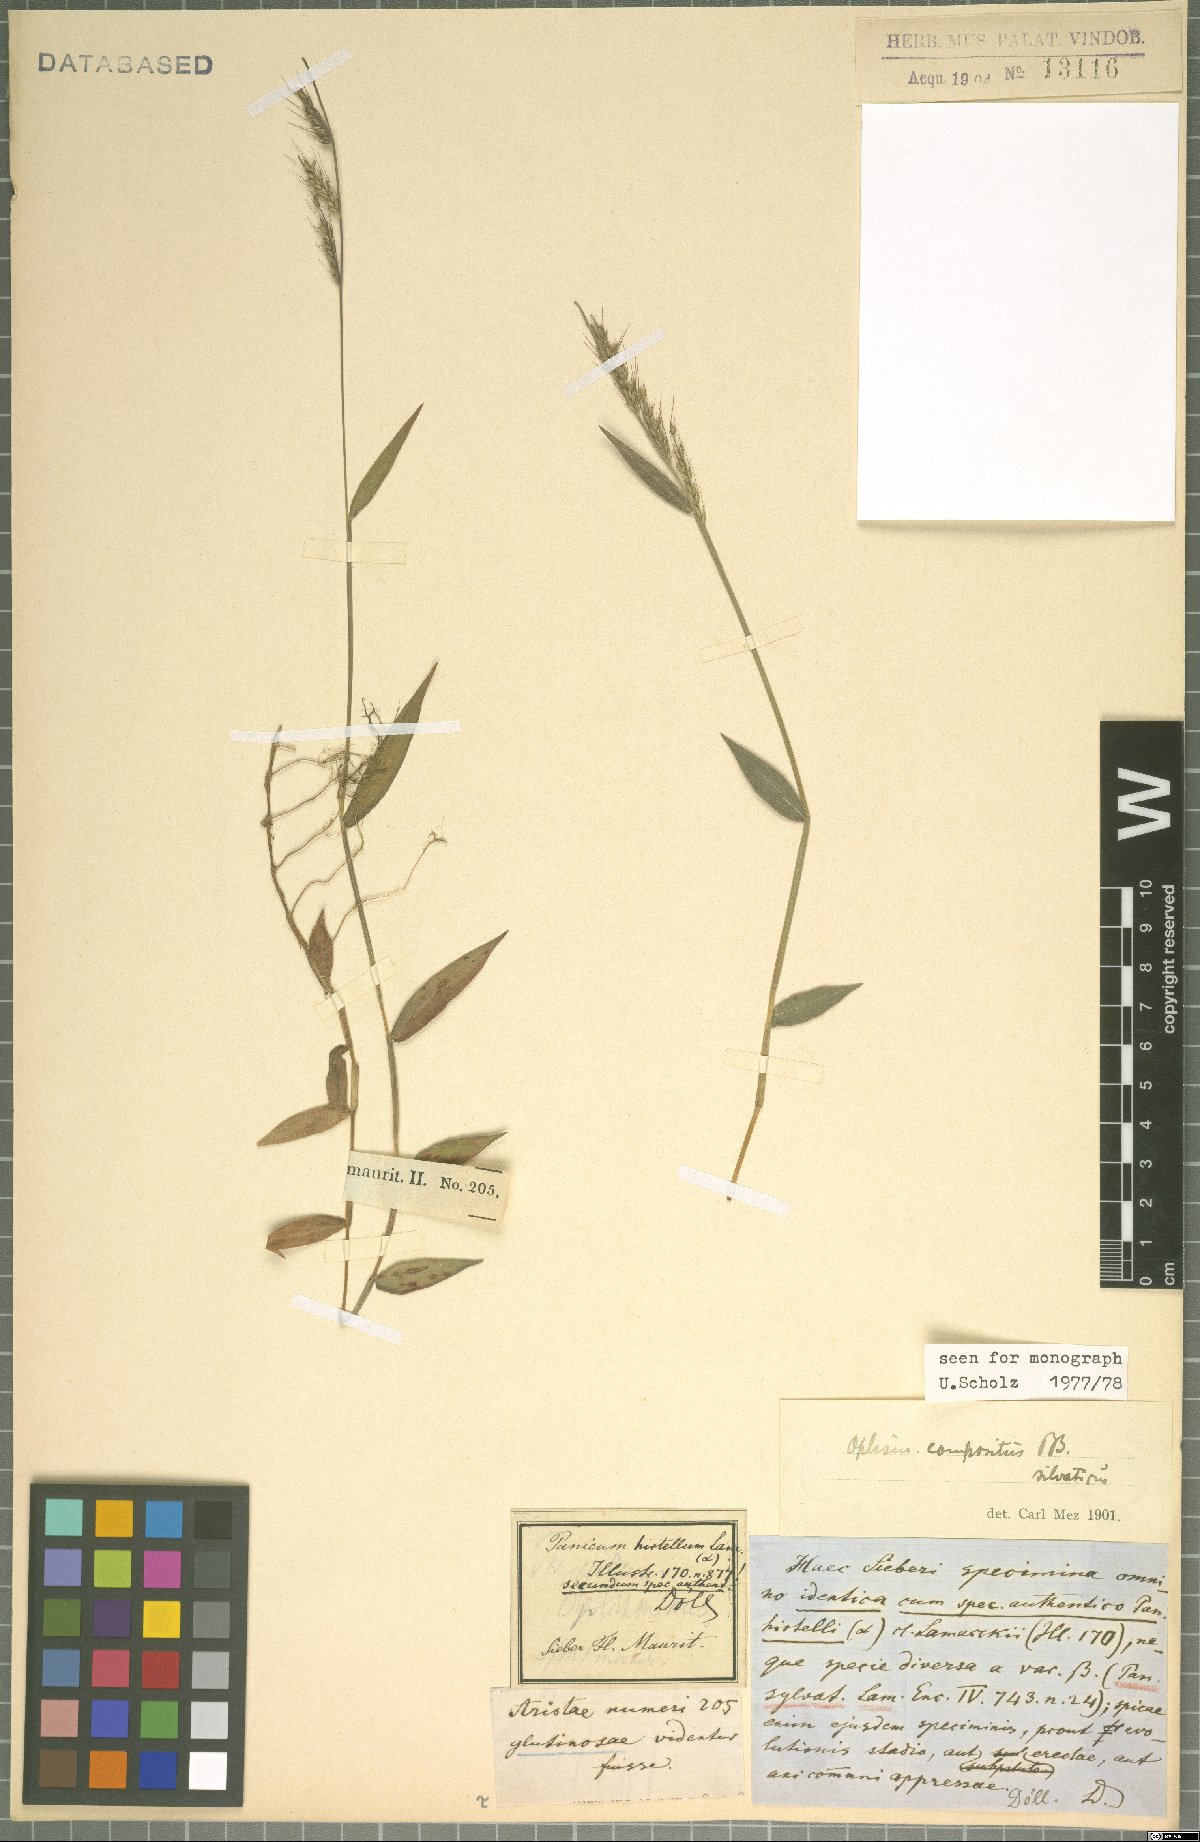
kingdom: Plantae
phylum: Tracheophyta
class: Liliopsida
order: Poales
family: Poaceae
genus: Oplismenus
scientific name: Oplismenus compositus
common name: Running mountain grass
